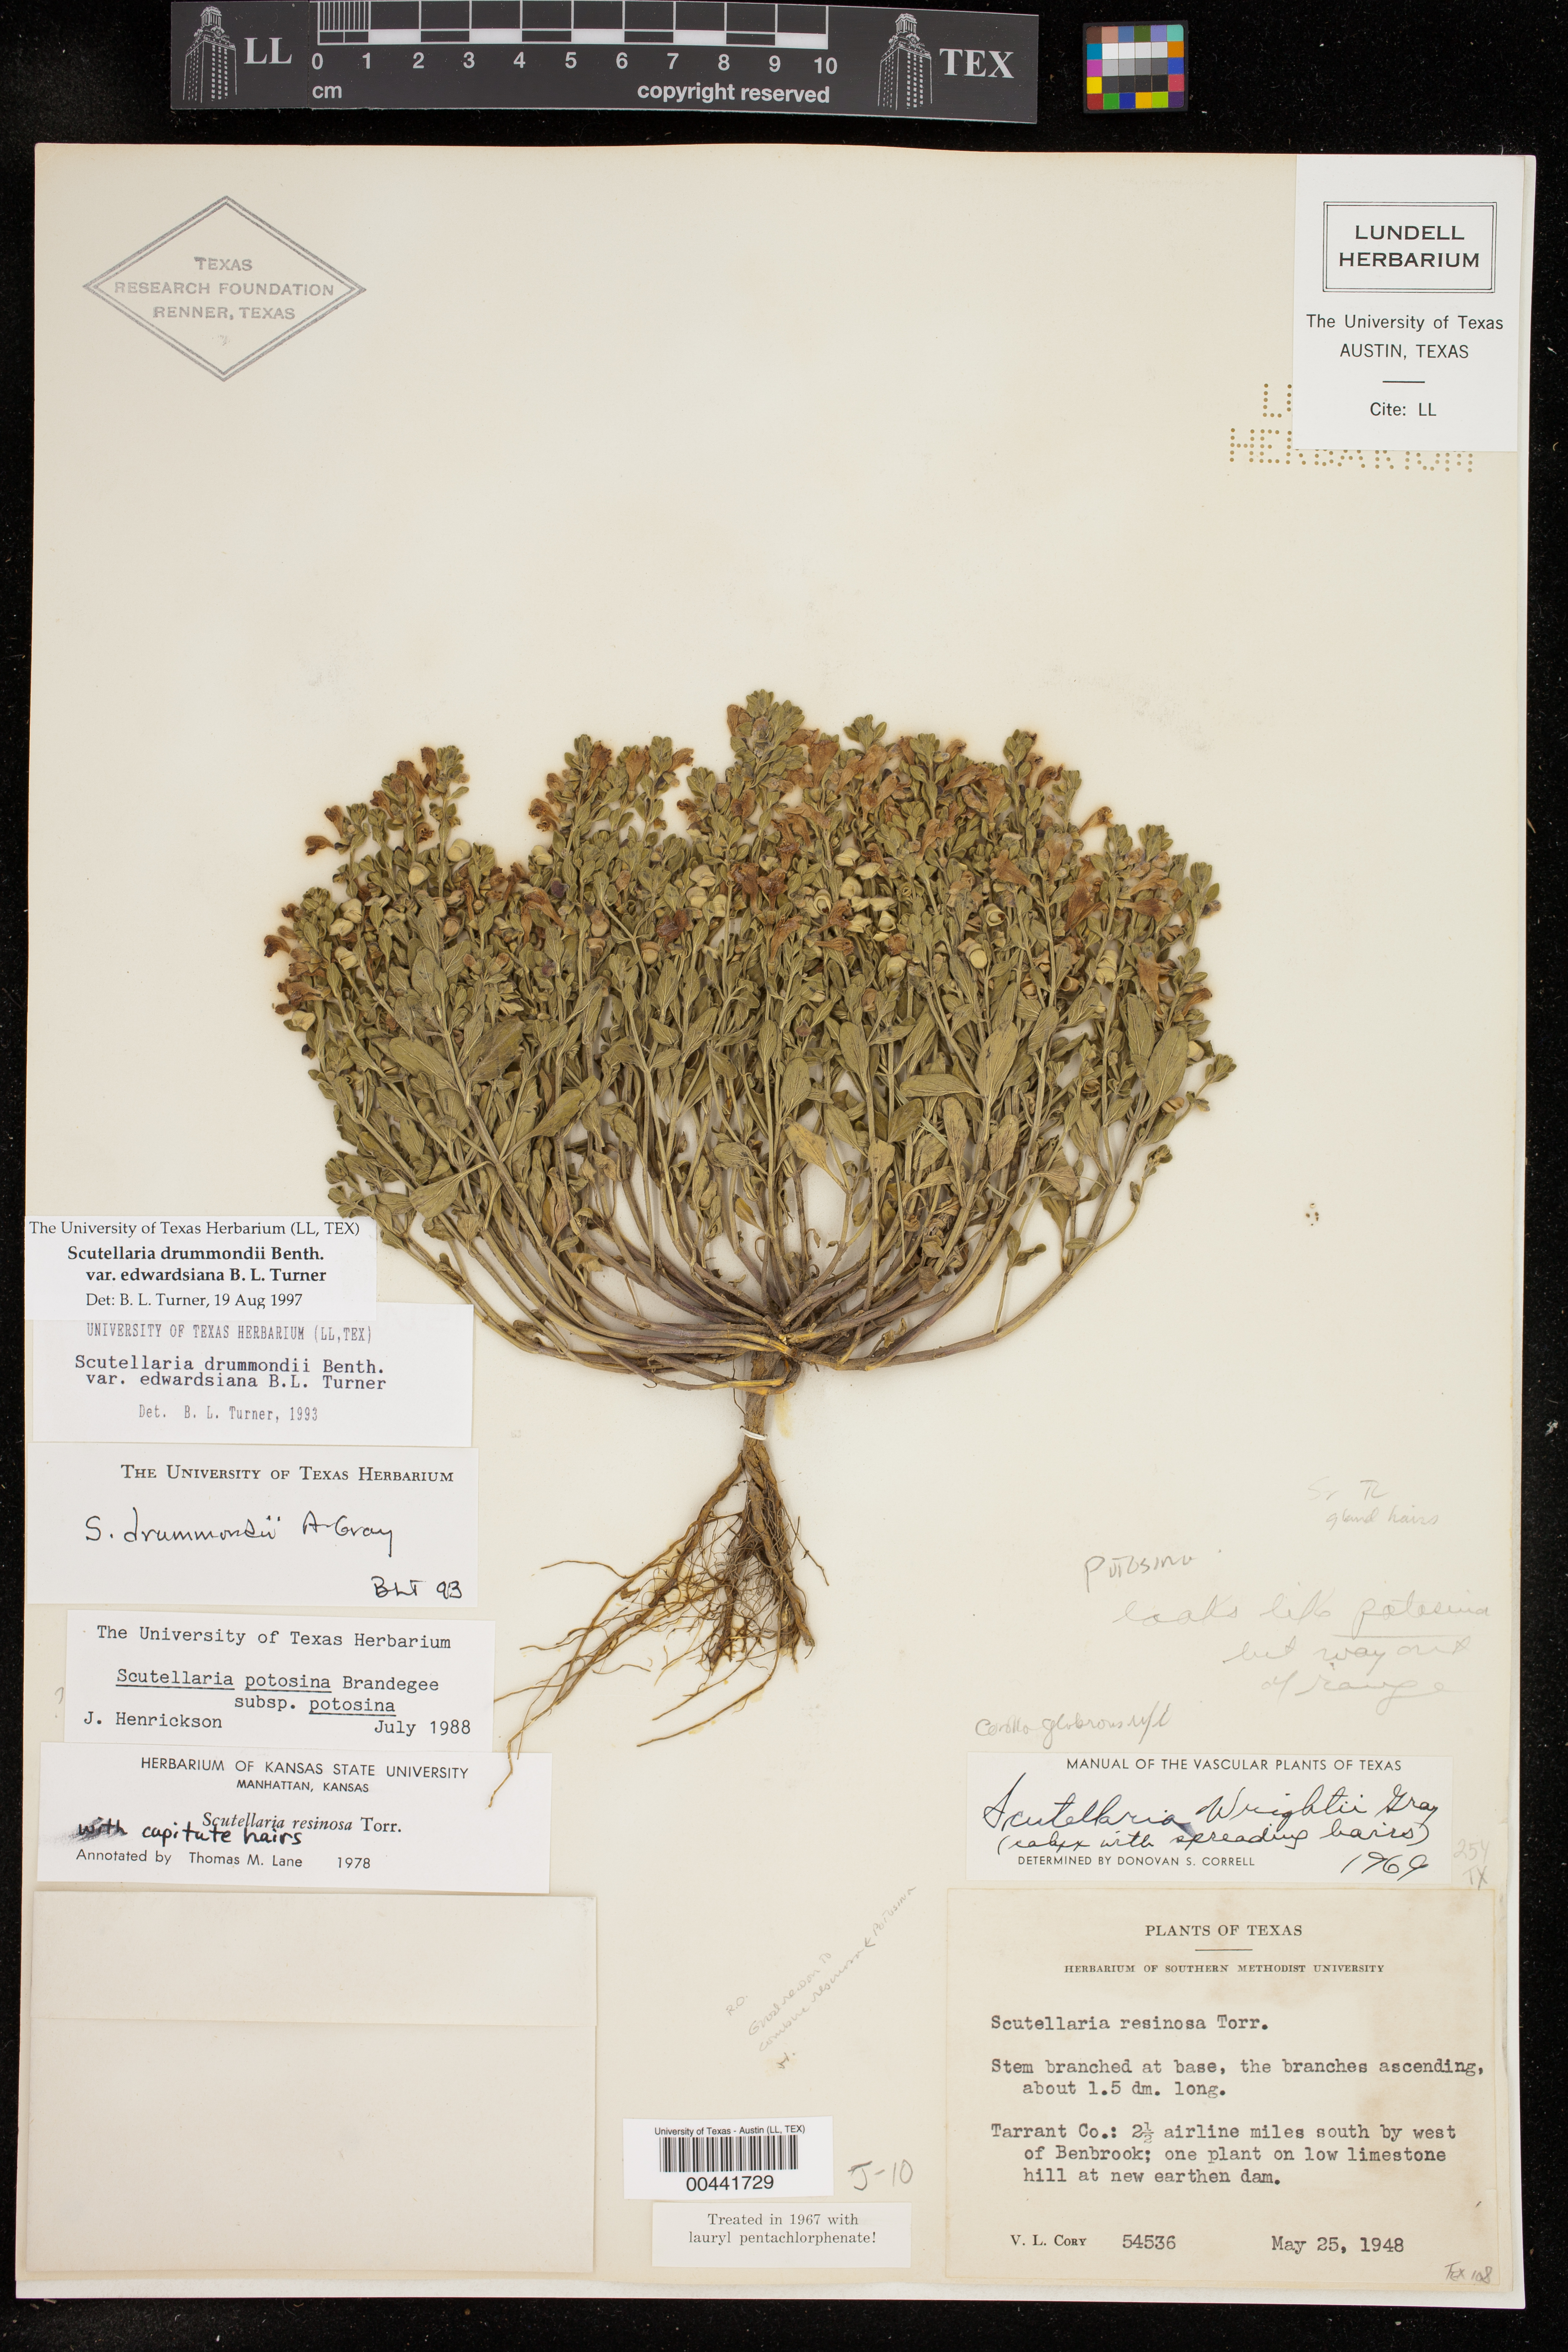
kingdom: Plantae
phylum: Tracheophyta
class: Magnoliopsida
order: Lamiales
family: Lamiaceae
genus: Scutellaria
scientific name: Scutellaria drummondii
